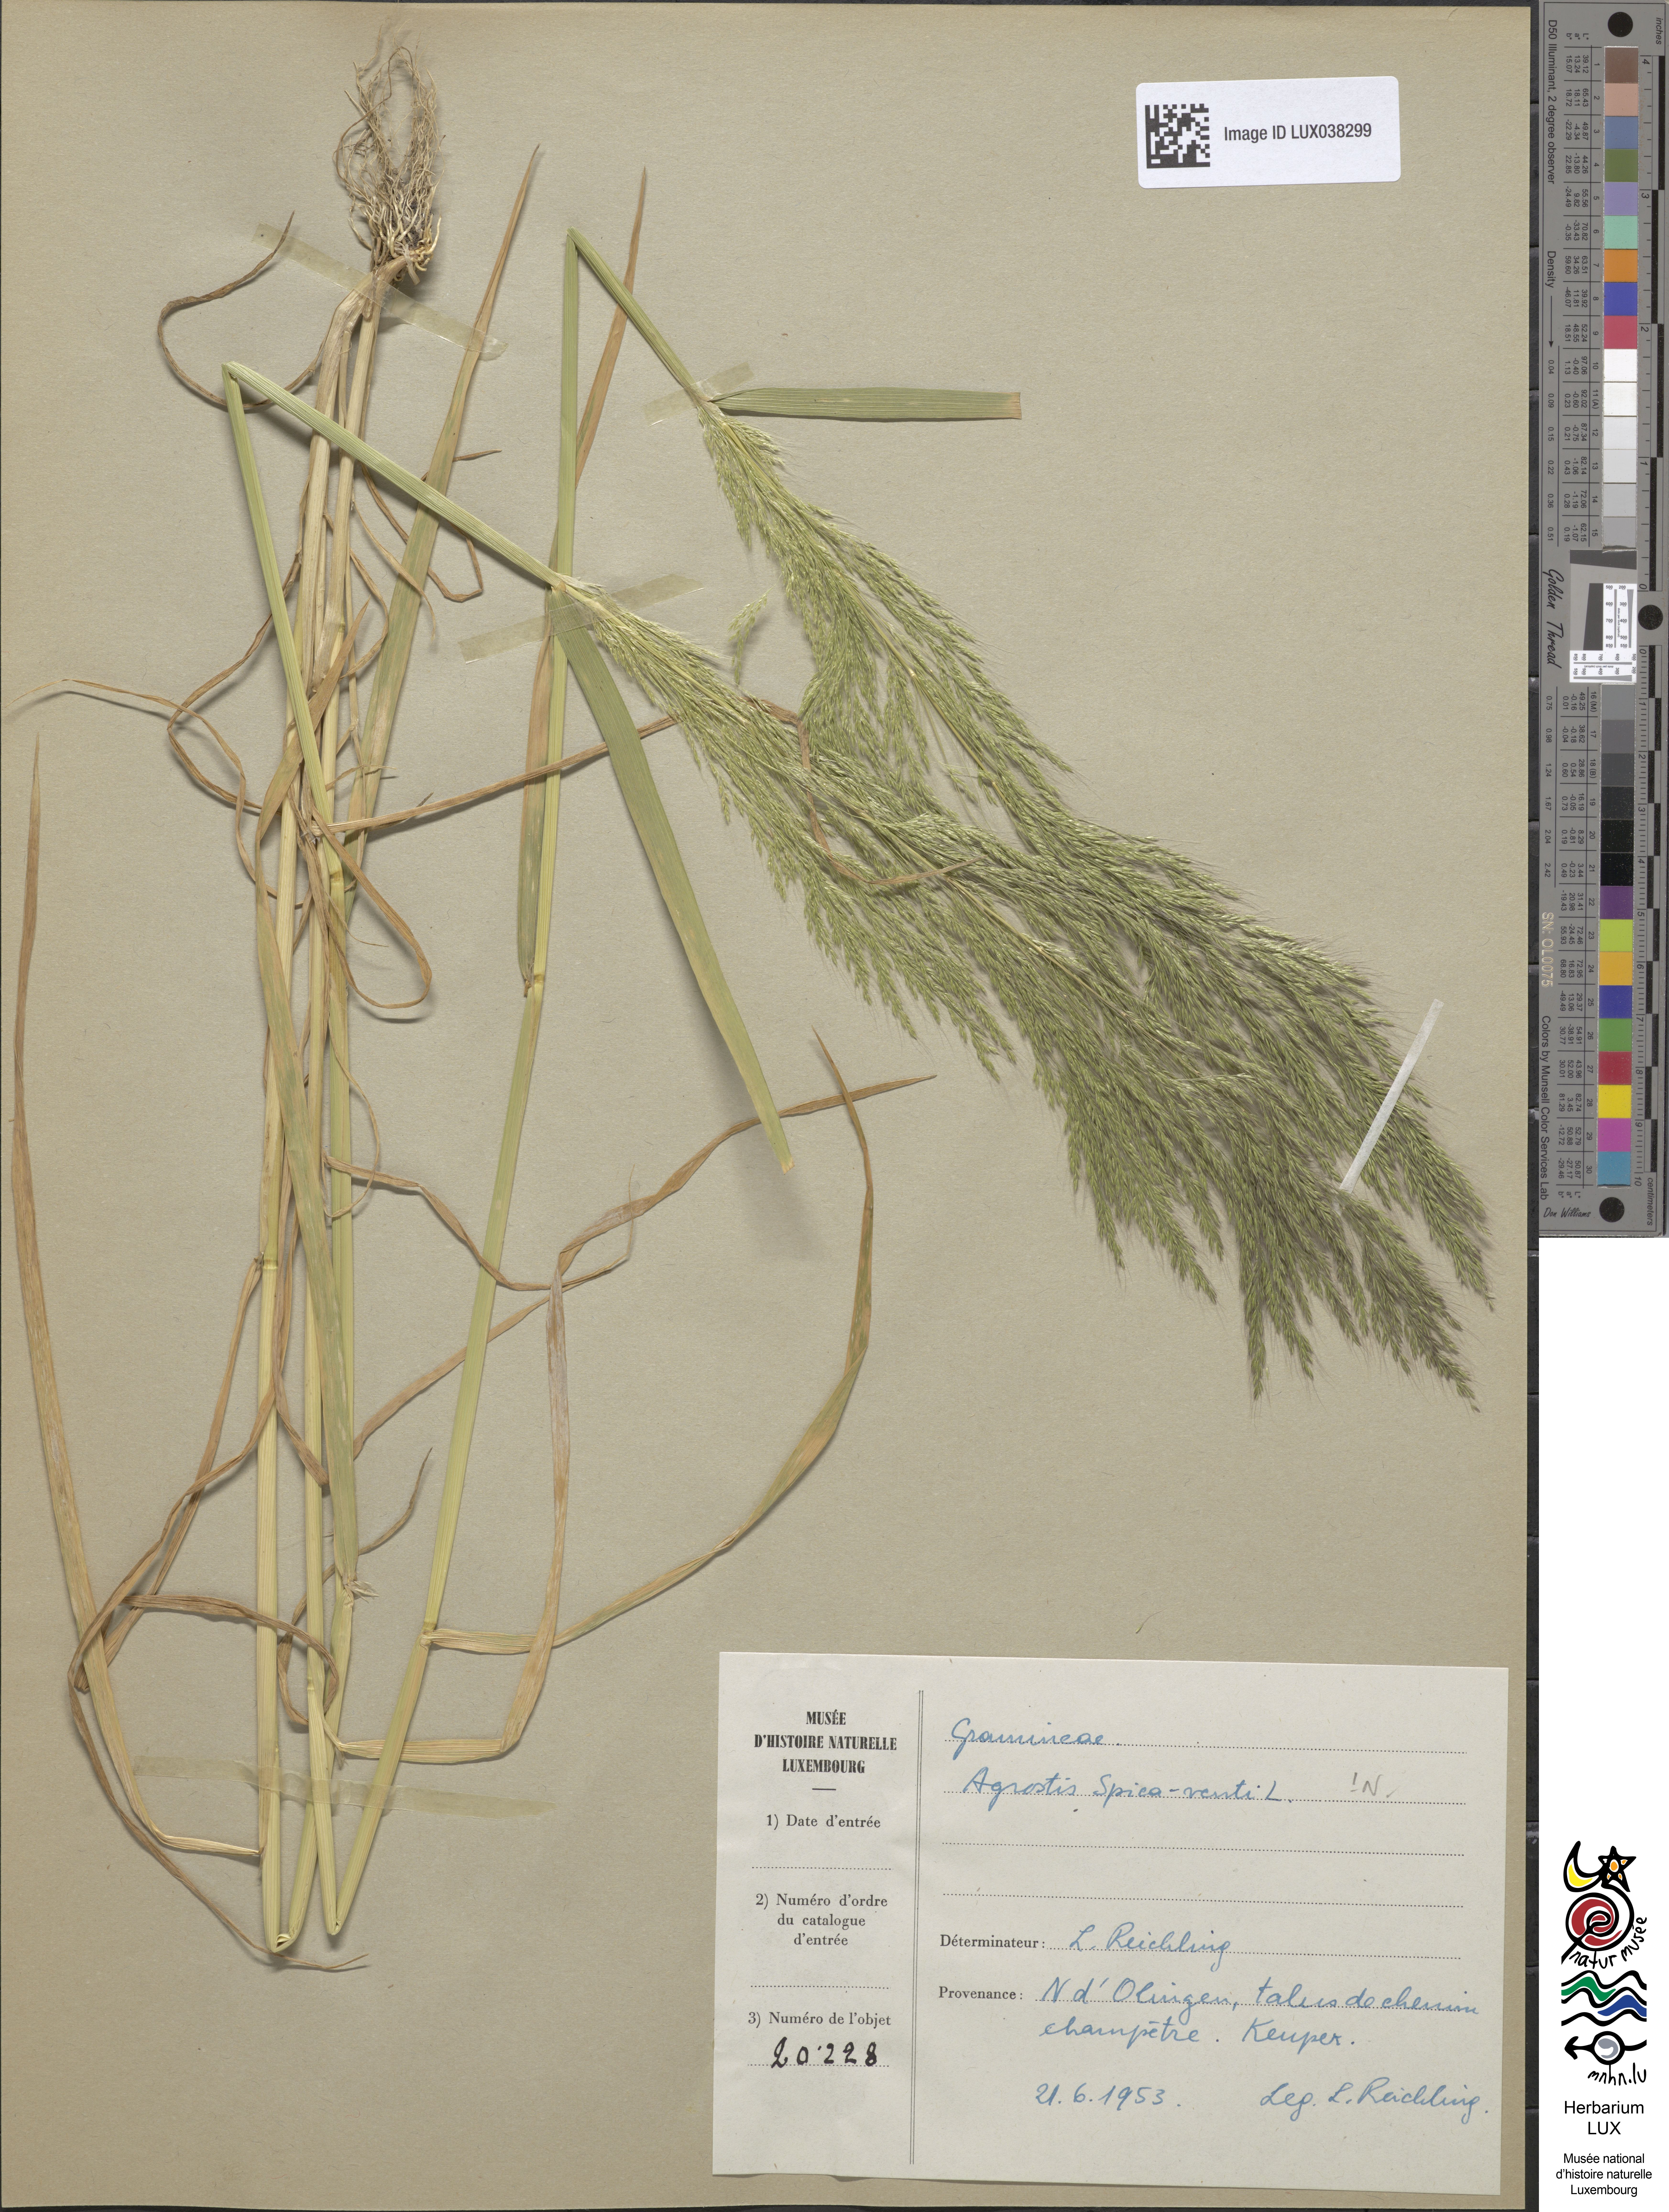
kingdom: Plantae
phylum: Tracheophyta
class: Liliopsida
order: Poales
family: Poaceae
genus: Apera
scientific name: Apera spica-venti
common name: Loose silky-bent
